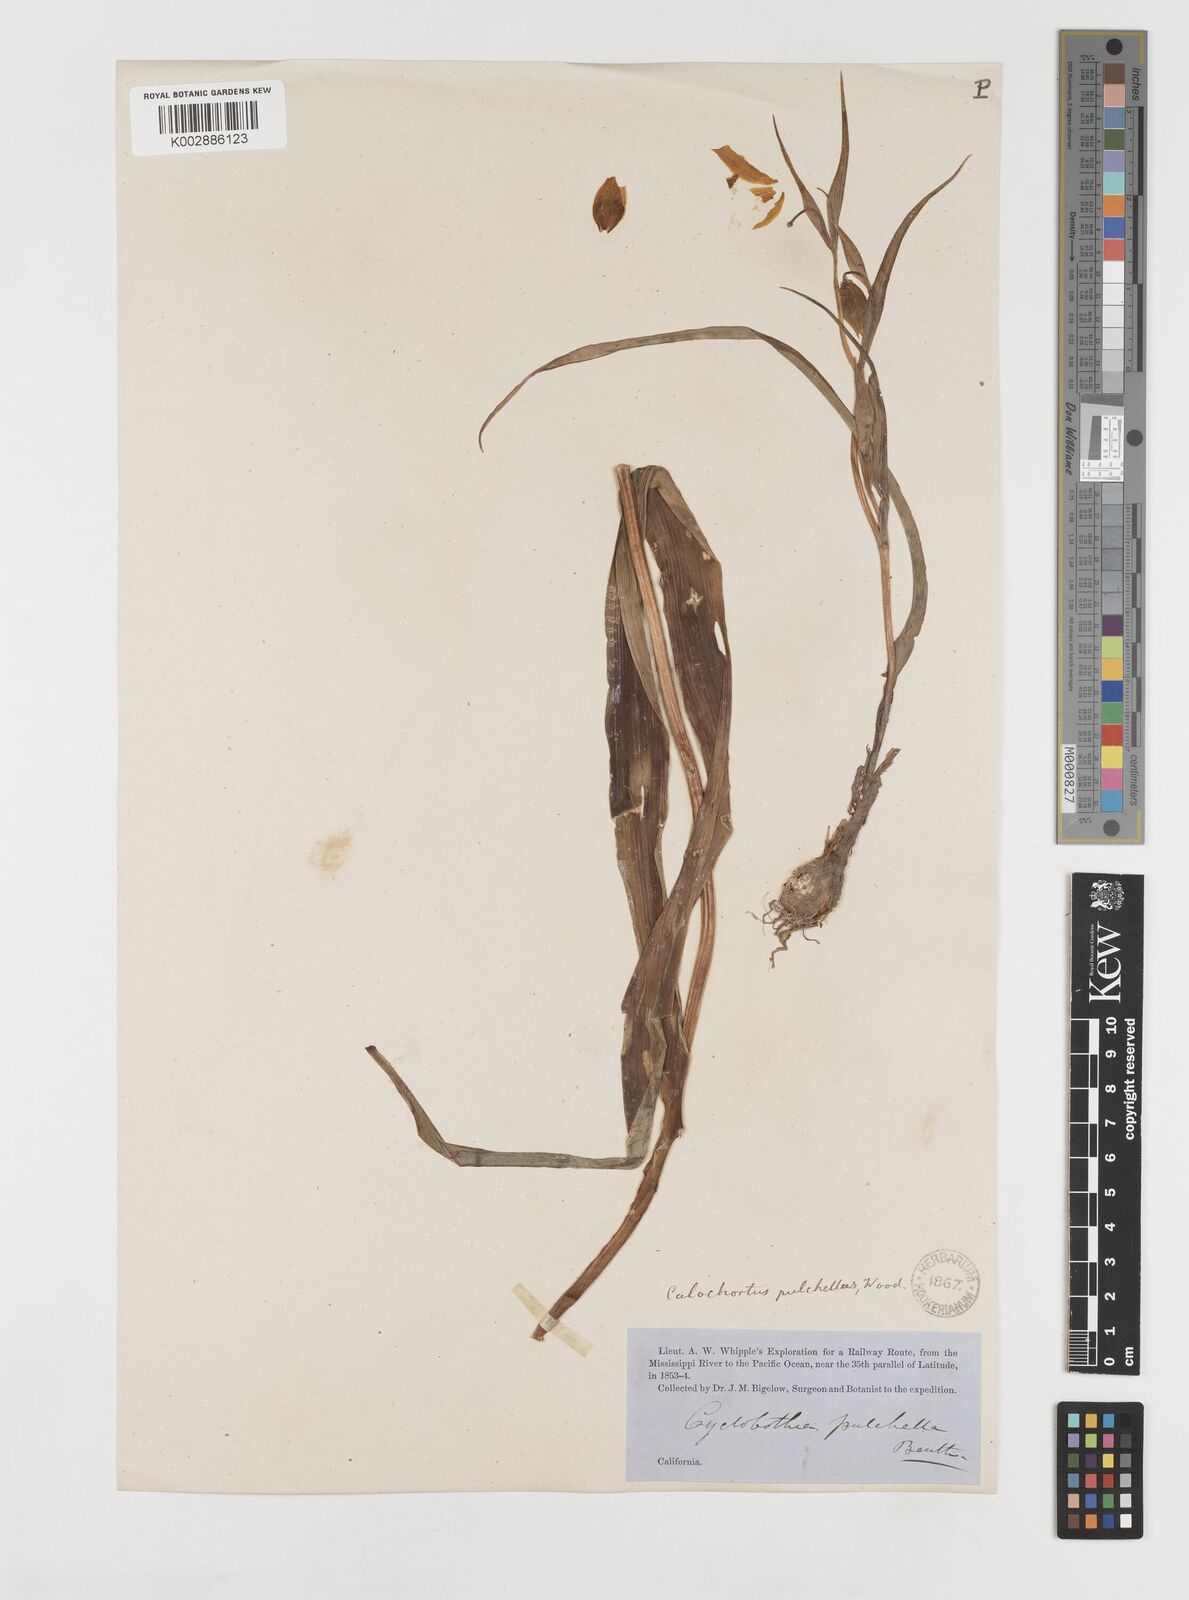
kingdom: Plantae
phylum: Tracheophyta
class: Liliopsida
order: Liliales
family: Liliaceae
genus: Calochortus
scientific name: Calochortus pulchellus
